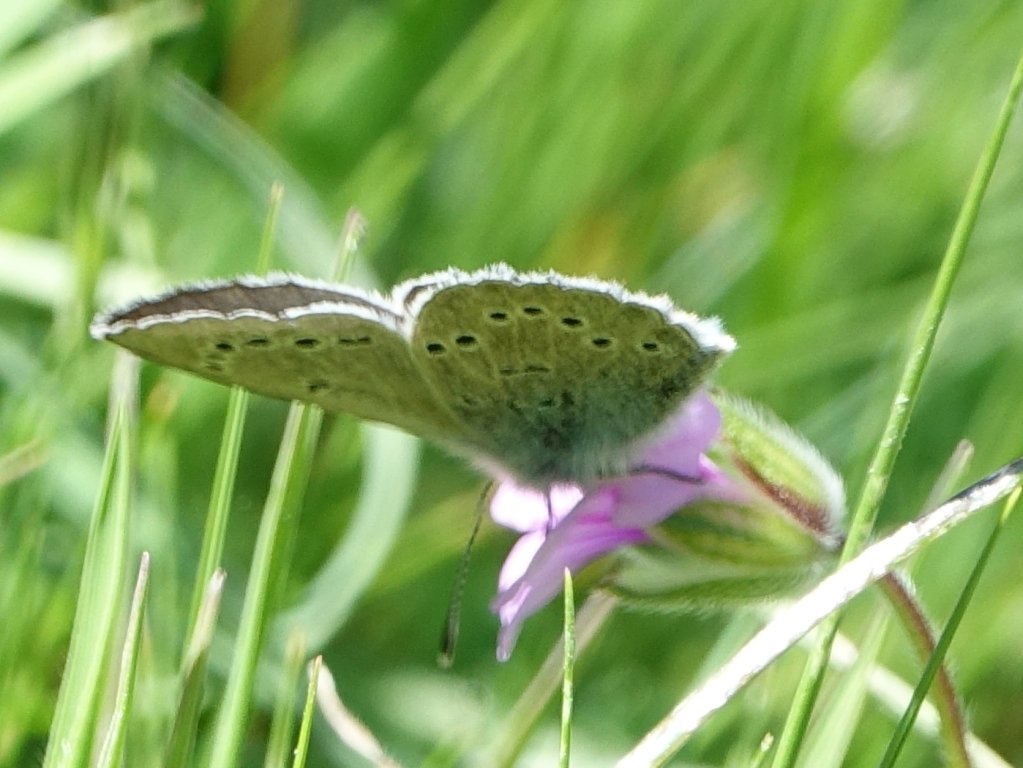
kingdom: Animalia
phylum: Arthropoda
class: Insecta
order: Lepidoptera
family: Lycaenidae
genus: Glaucopsyche
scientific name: Glaucopsyche lygdamus
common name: Silvery Blue
